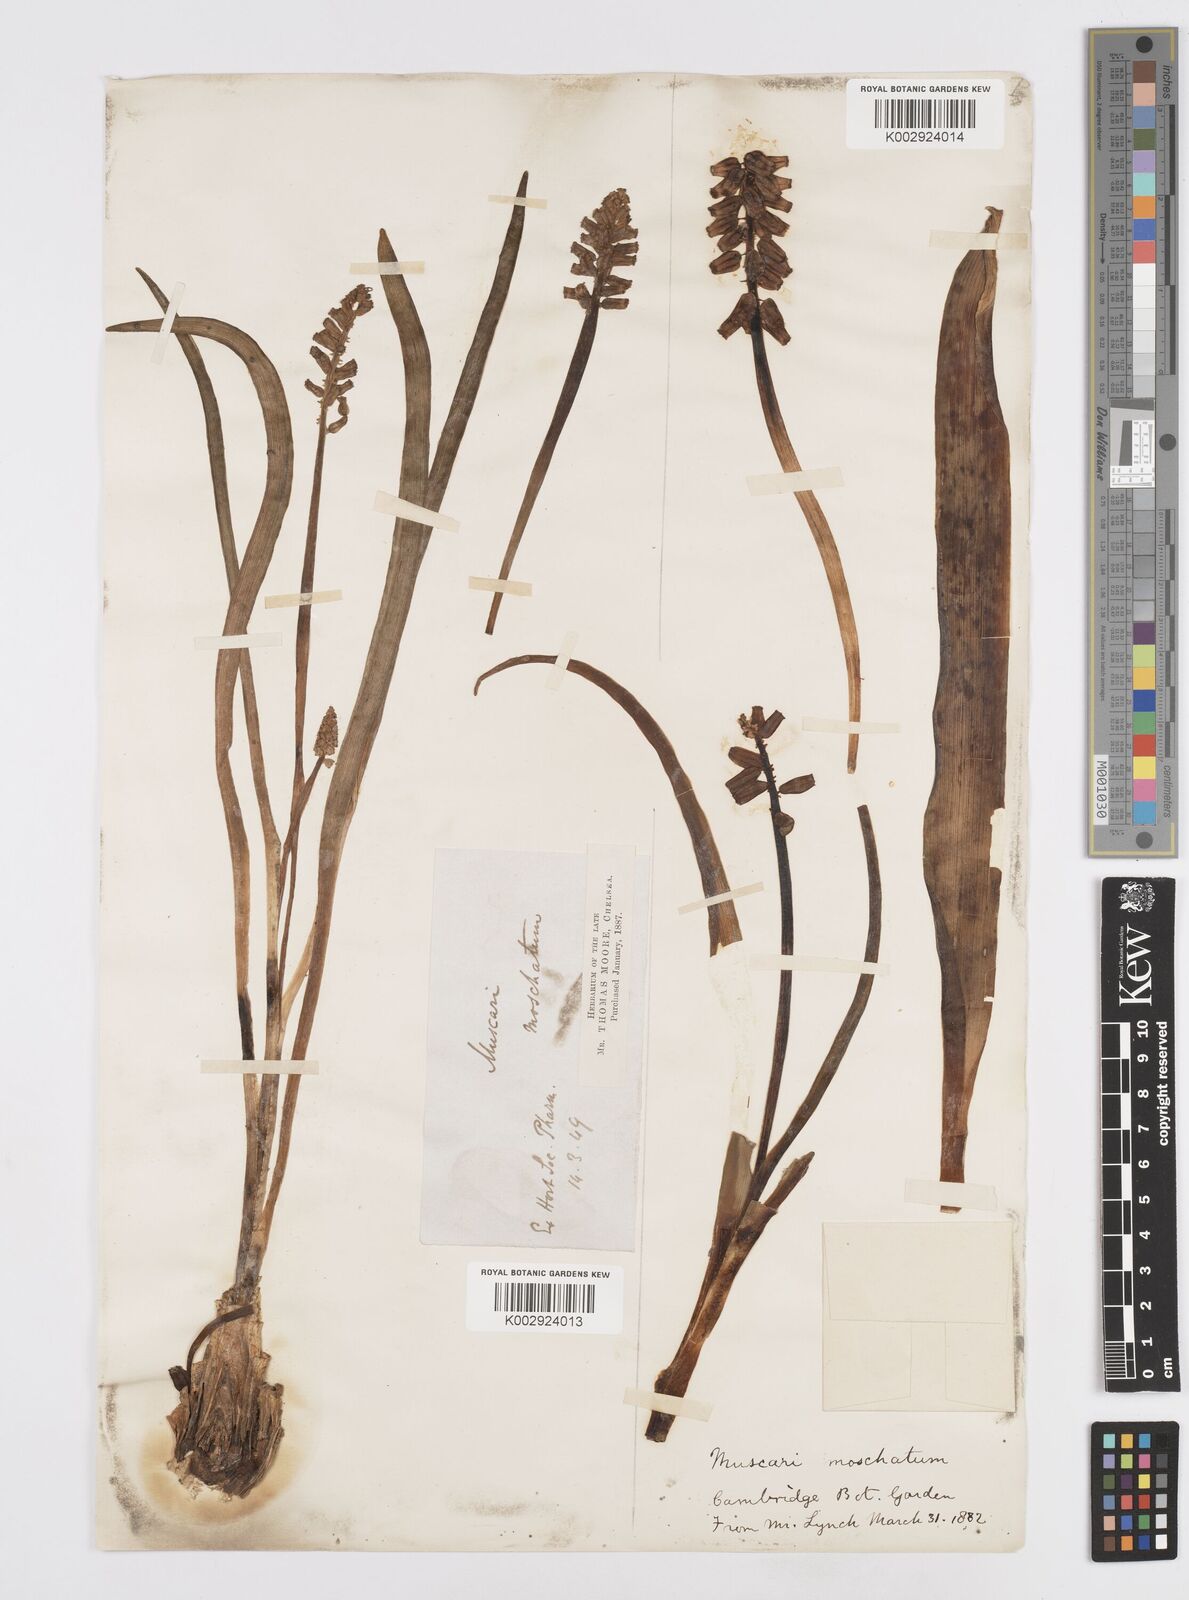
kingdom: Plantae
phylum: Tracheophyta
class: Liliopsida
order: Asparagales
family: Asparagaceae
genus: Muscarimia
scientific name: Muscarimia muscari
